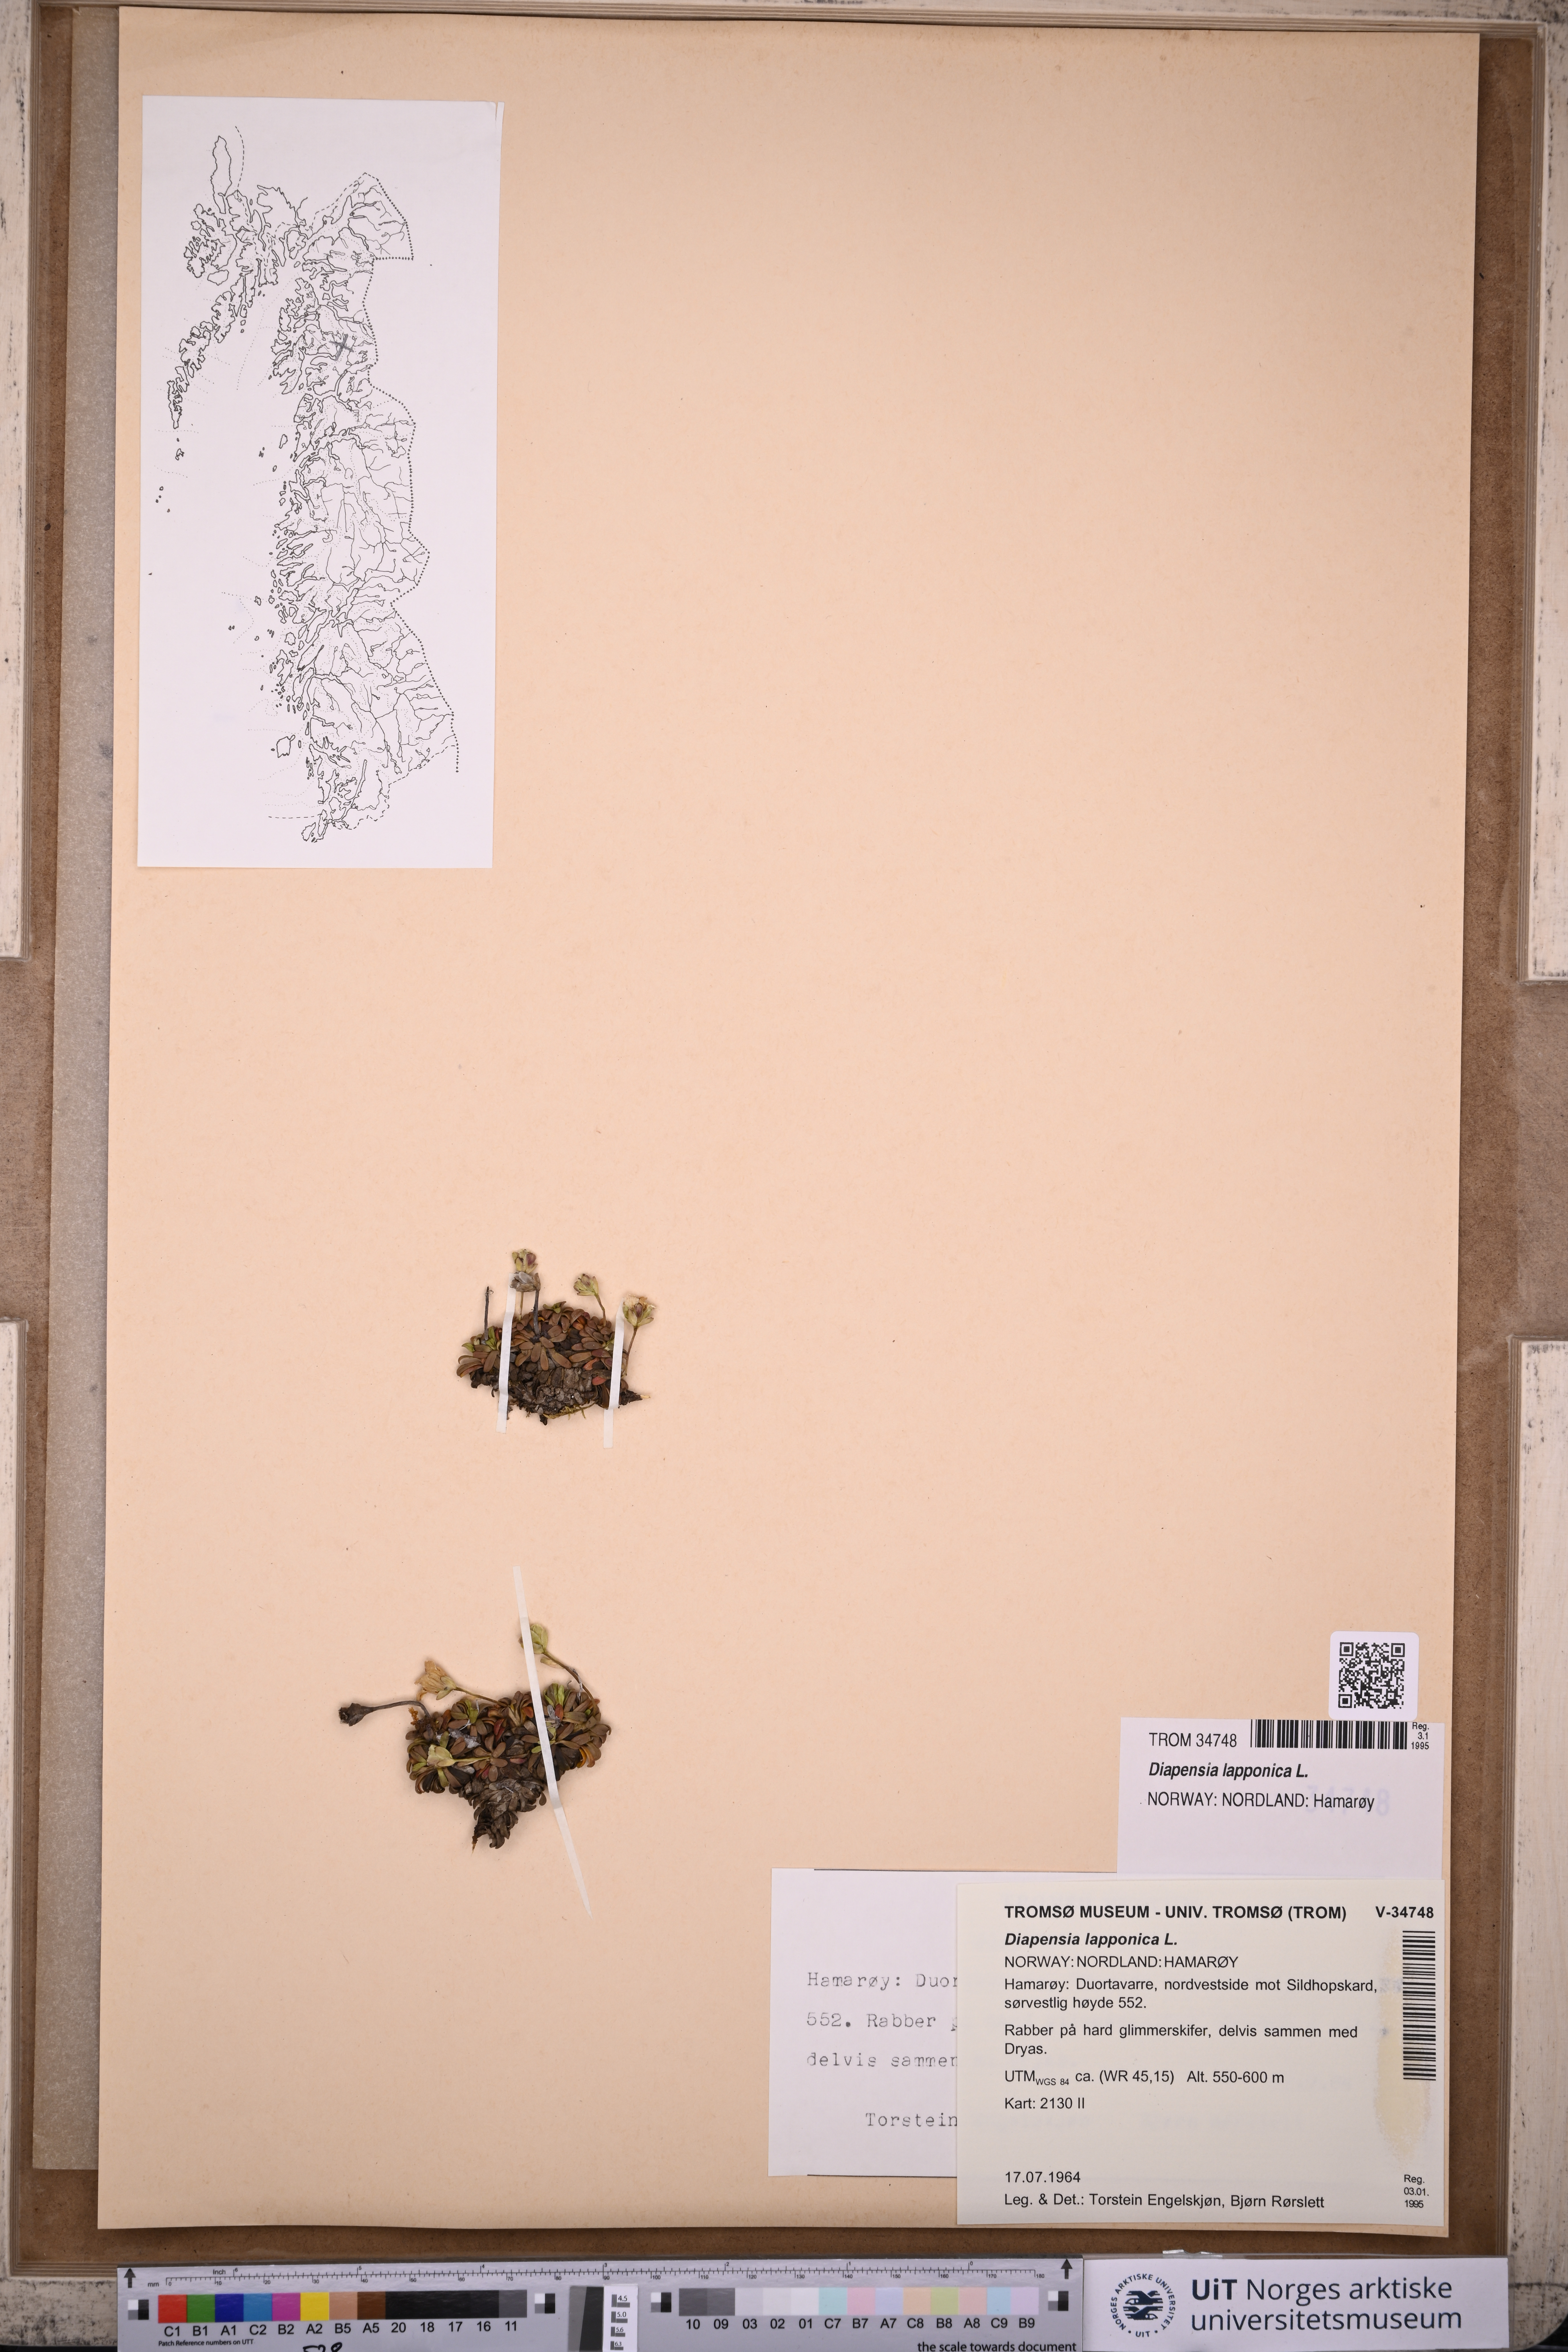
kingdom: Plantae
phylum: Tracheophyta
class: Magnoliopsida
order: Ericales
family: Diapensiaceae
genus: Diapensia
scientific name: Diapensia lapponica
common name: Diapensia
